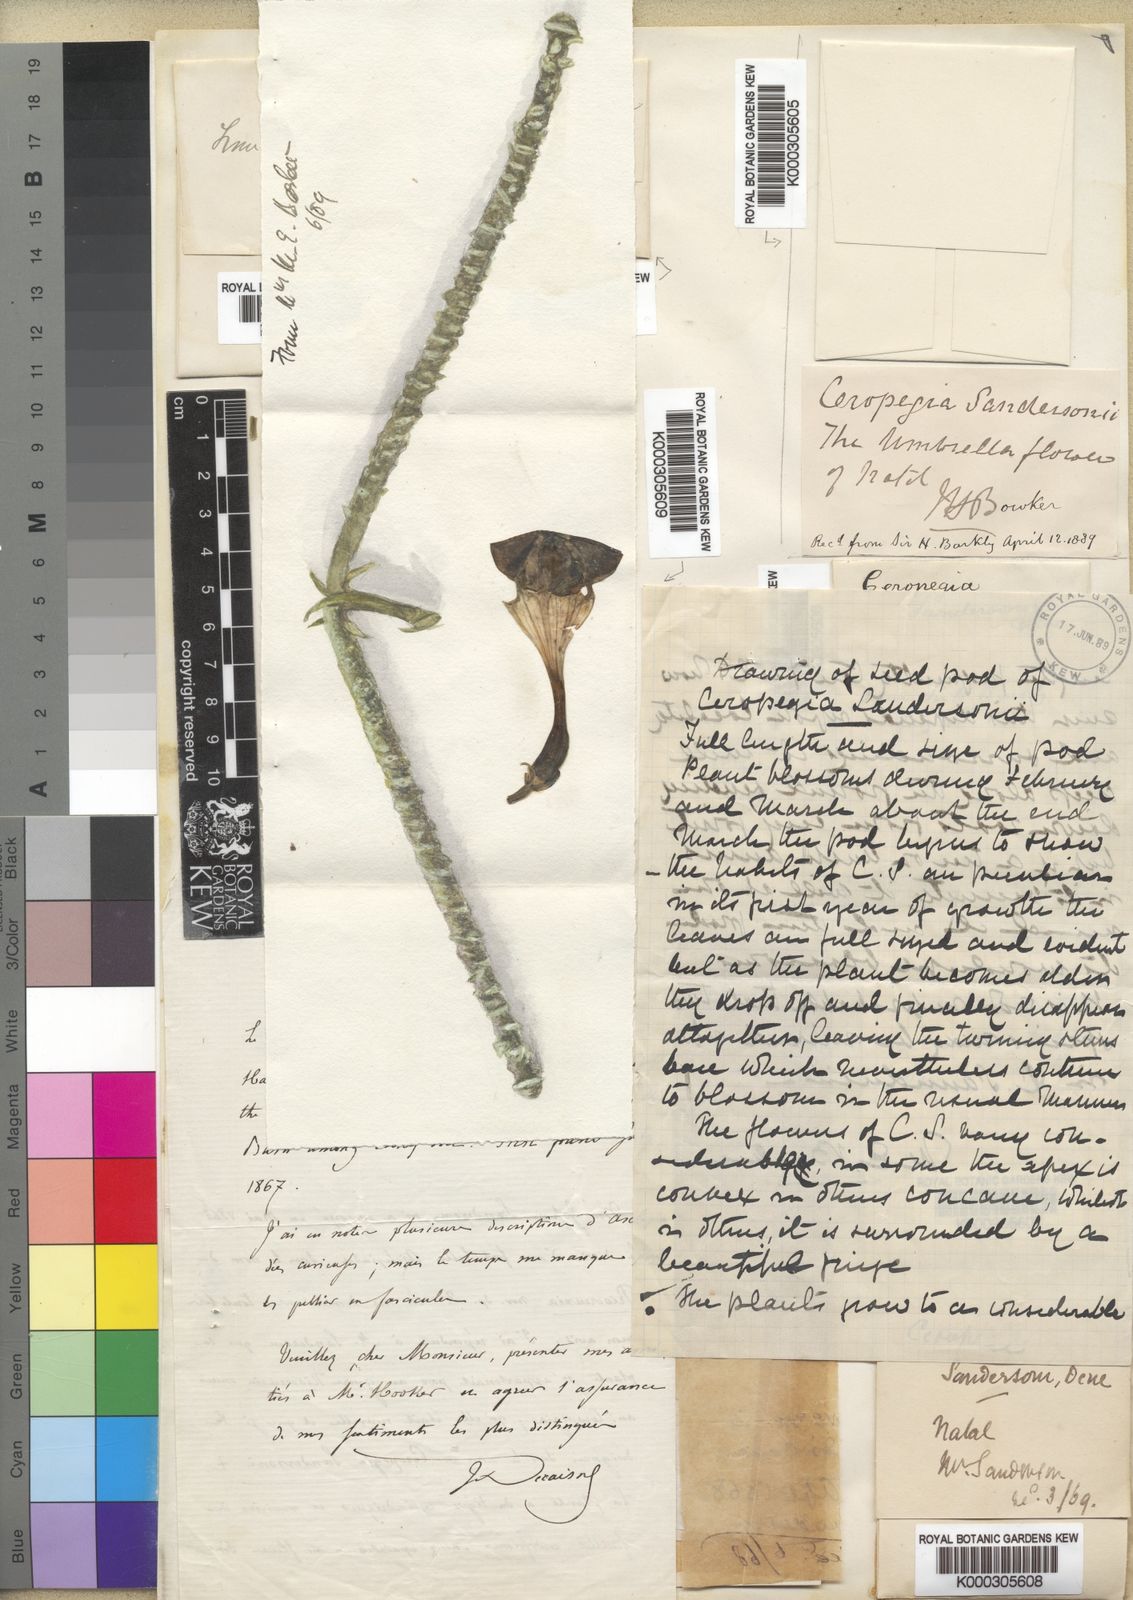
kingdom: Plantae
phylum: Tracheophyta
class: Magnoliopsida
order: Gentianales
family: Apocynaceae
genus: Ceropegia
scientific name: Ceropegia sandersonii
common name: Fountain-flower
